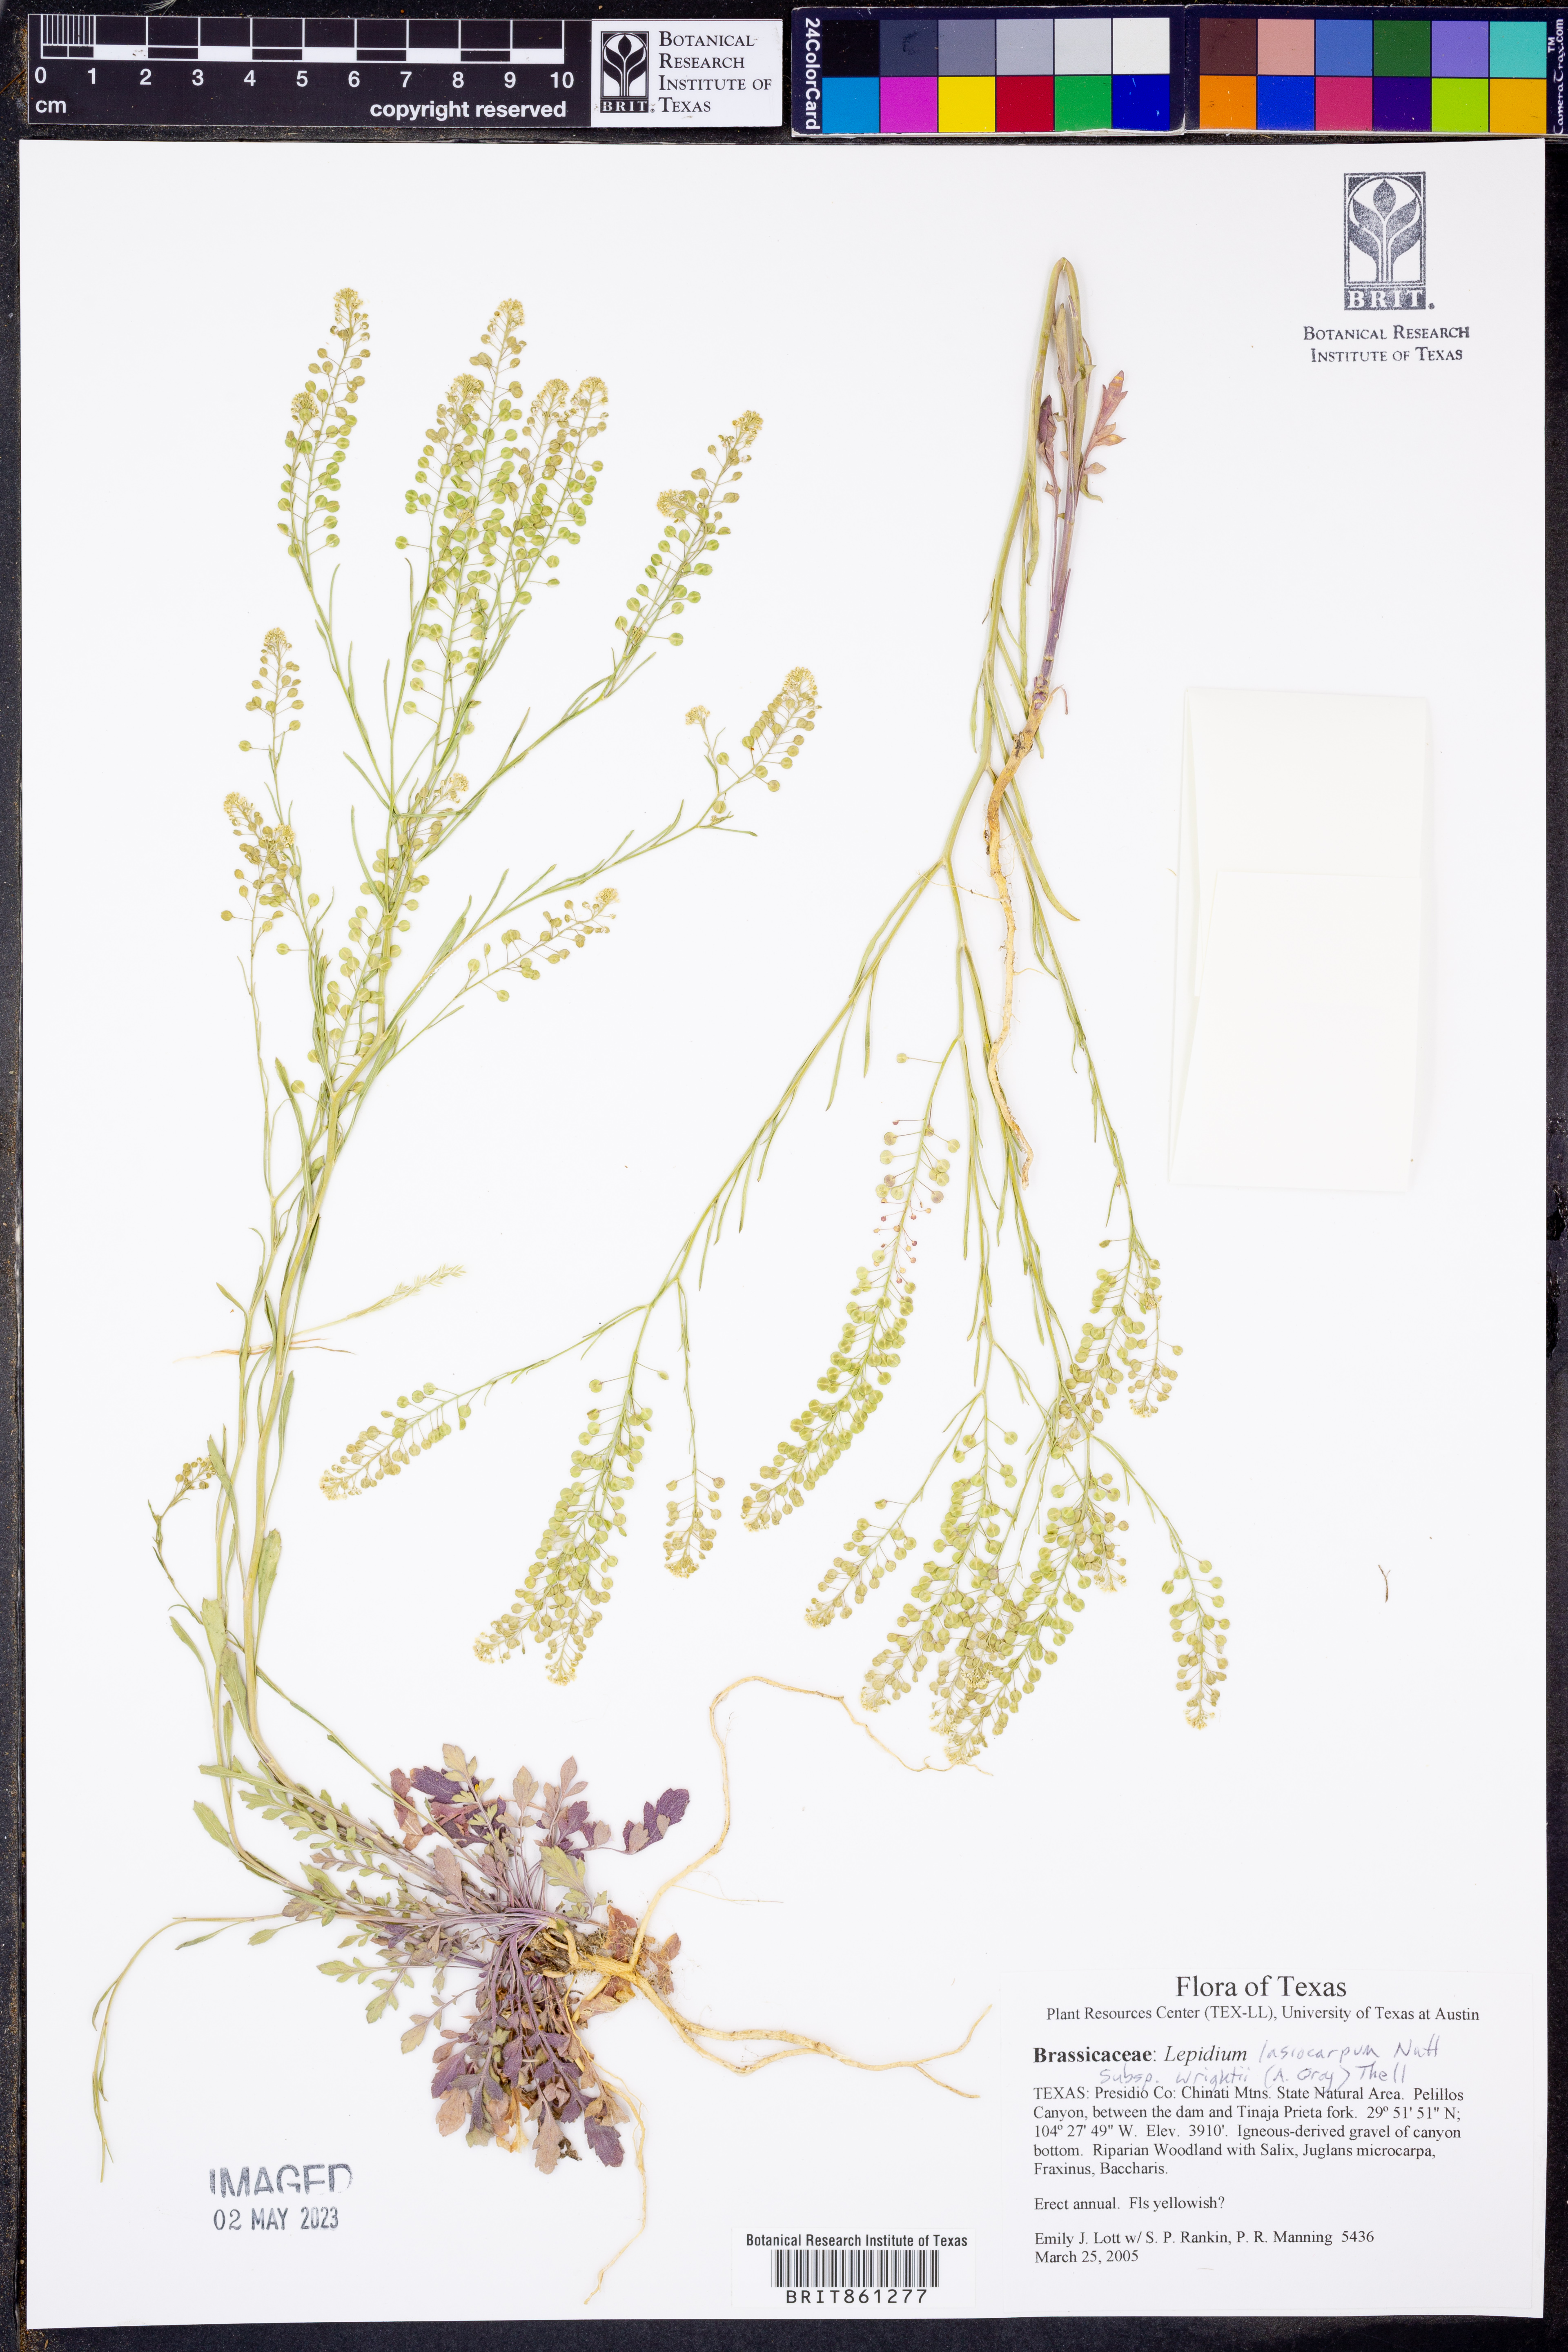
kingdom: Plantae
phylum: Tracheophyta
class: Magnoliopsida
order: Brassicales
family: Brassicaceae
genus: Lepidium
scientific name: Lepidium lasiocarpum
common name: Hairy-pod pepperwort
